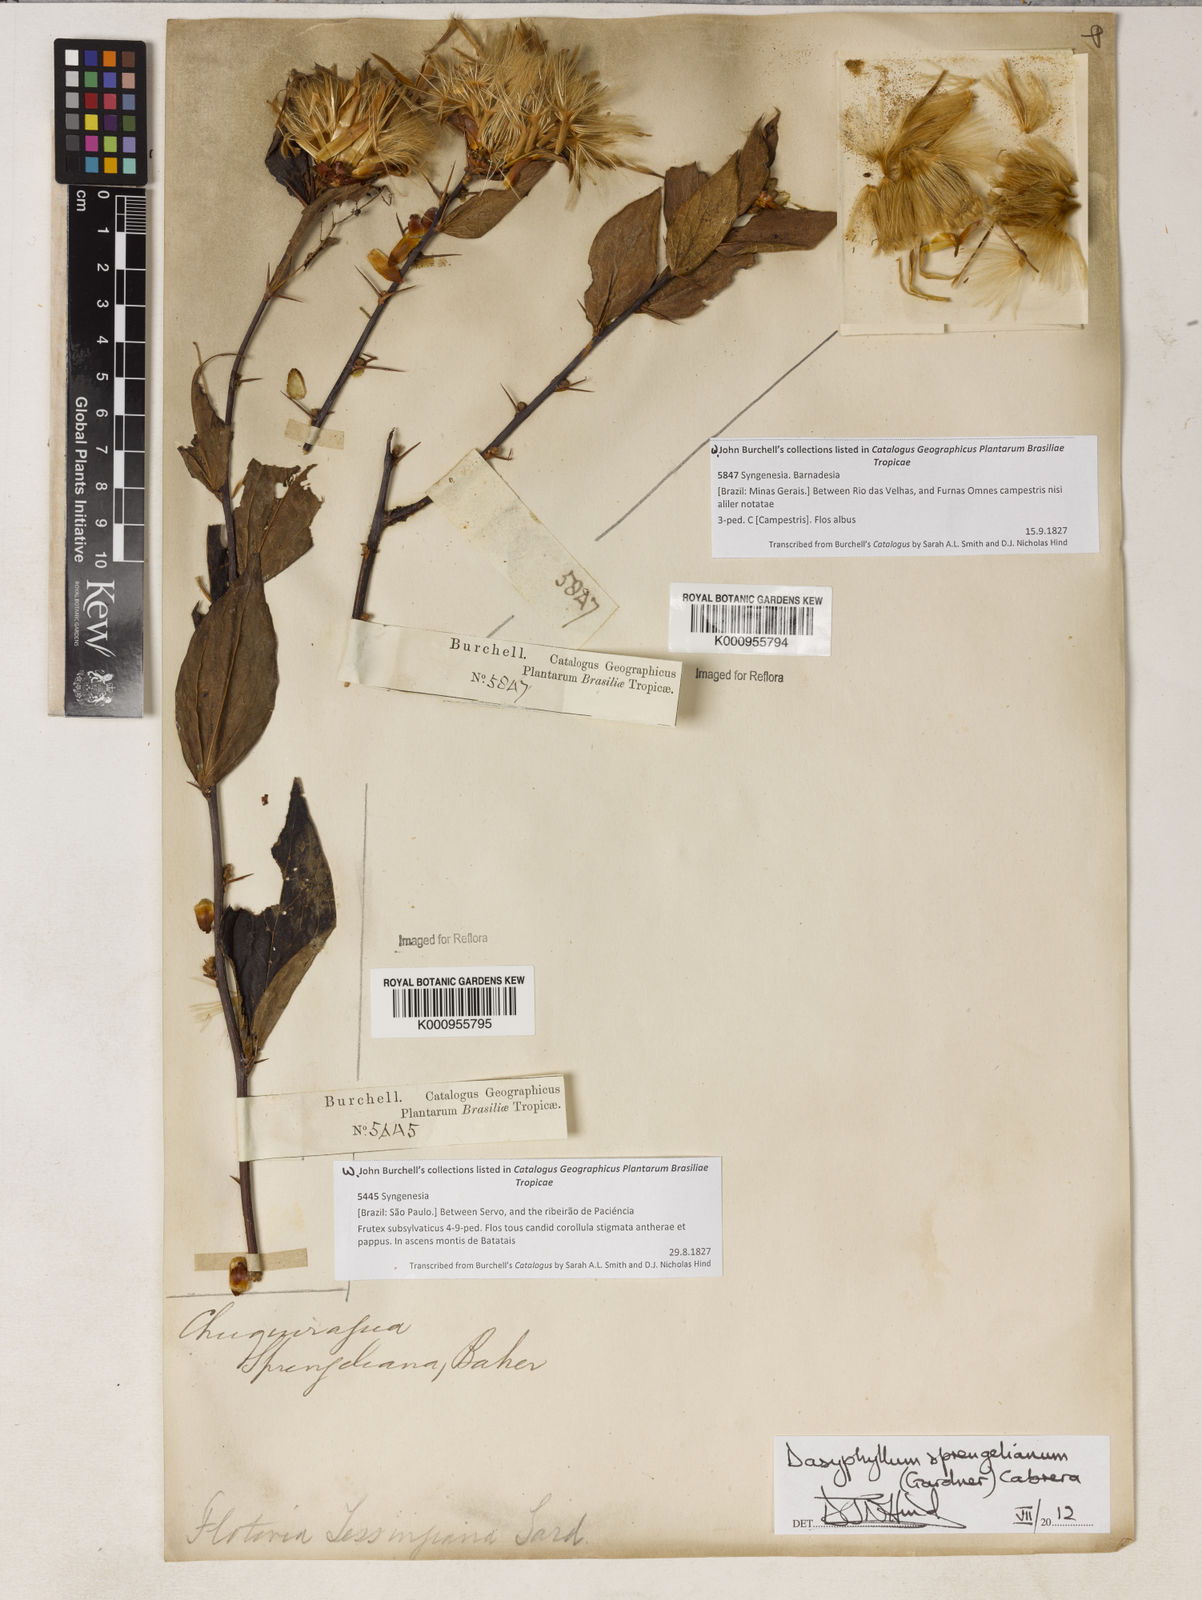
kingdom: Plantae
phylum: Tracheophyta
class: Magnoliopsida
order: Asterales
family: Asteraceae
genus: Dasyphyllum
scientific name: Dasyphyllum sprengelianum
